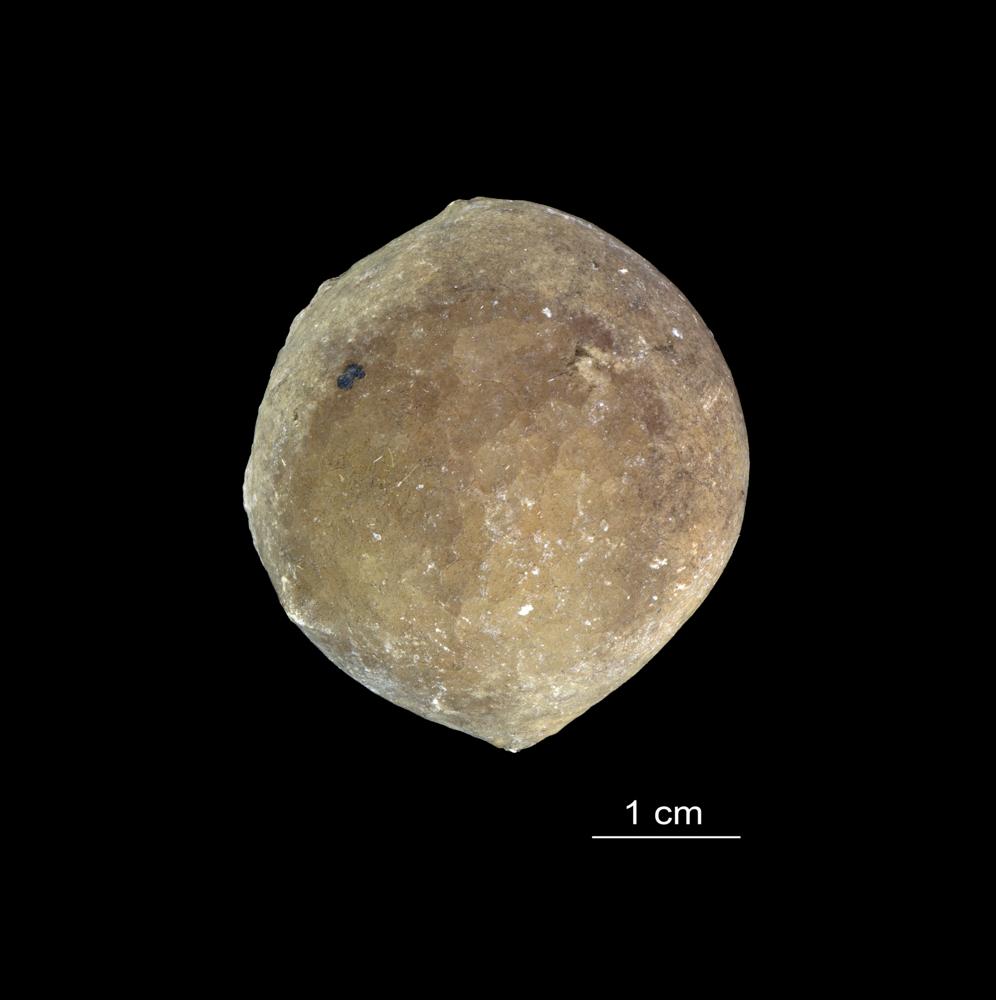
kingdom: Animalia
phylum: Echinodermata
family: Echinosphaeritidae
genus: Echinosphaerites
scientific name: Echinosphaerites Echinus aurantium
